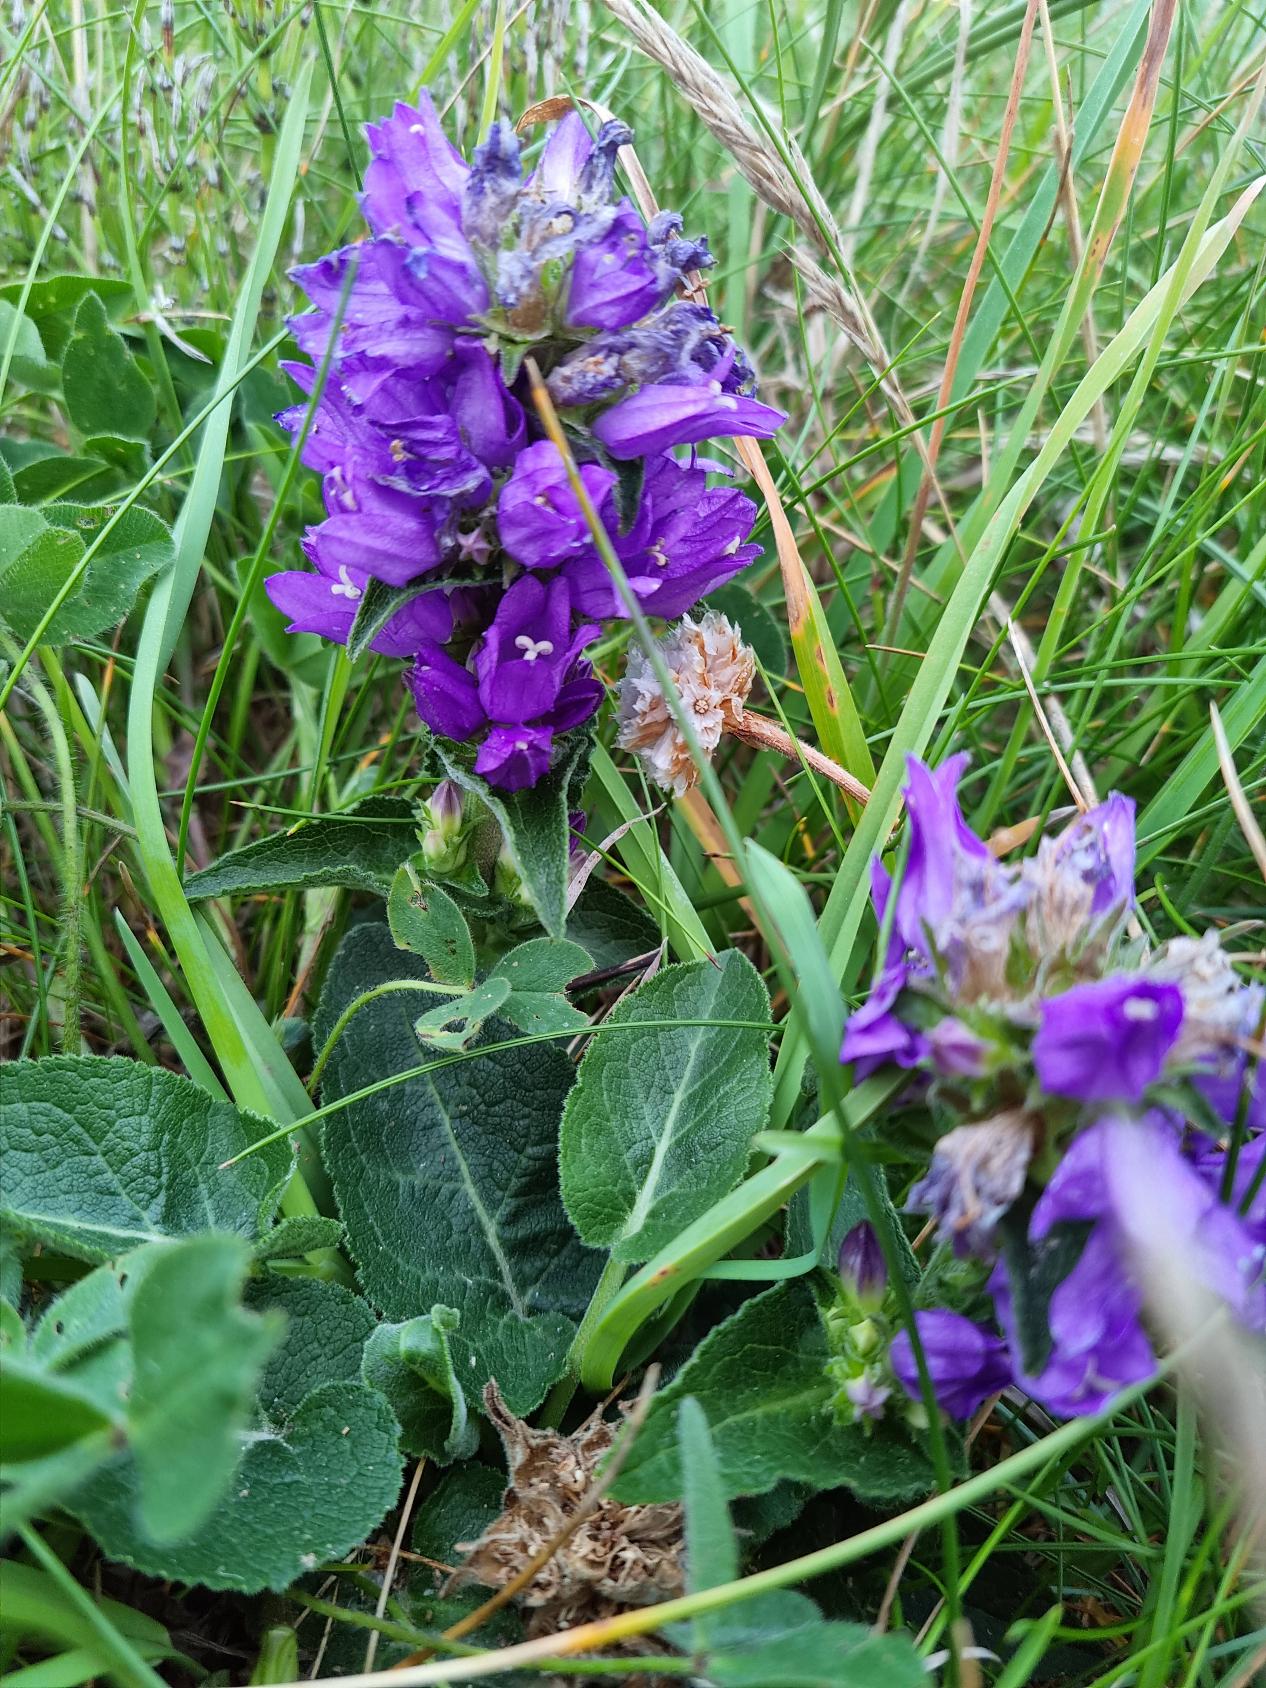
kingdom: Plantae
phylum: Tracheophyta
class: Magnoliopsida
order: Asterales
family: Campanulaceae
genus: Campanula
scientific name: Campanula glomerata
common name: Filtet klokke
